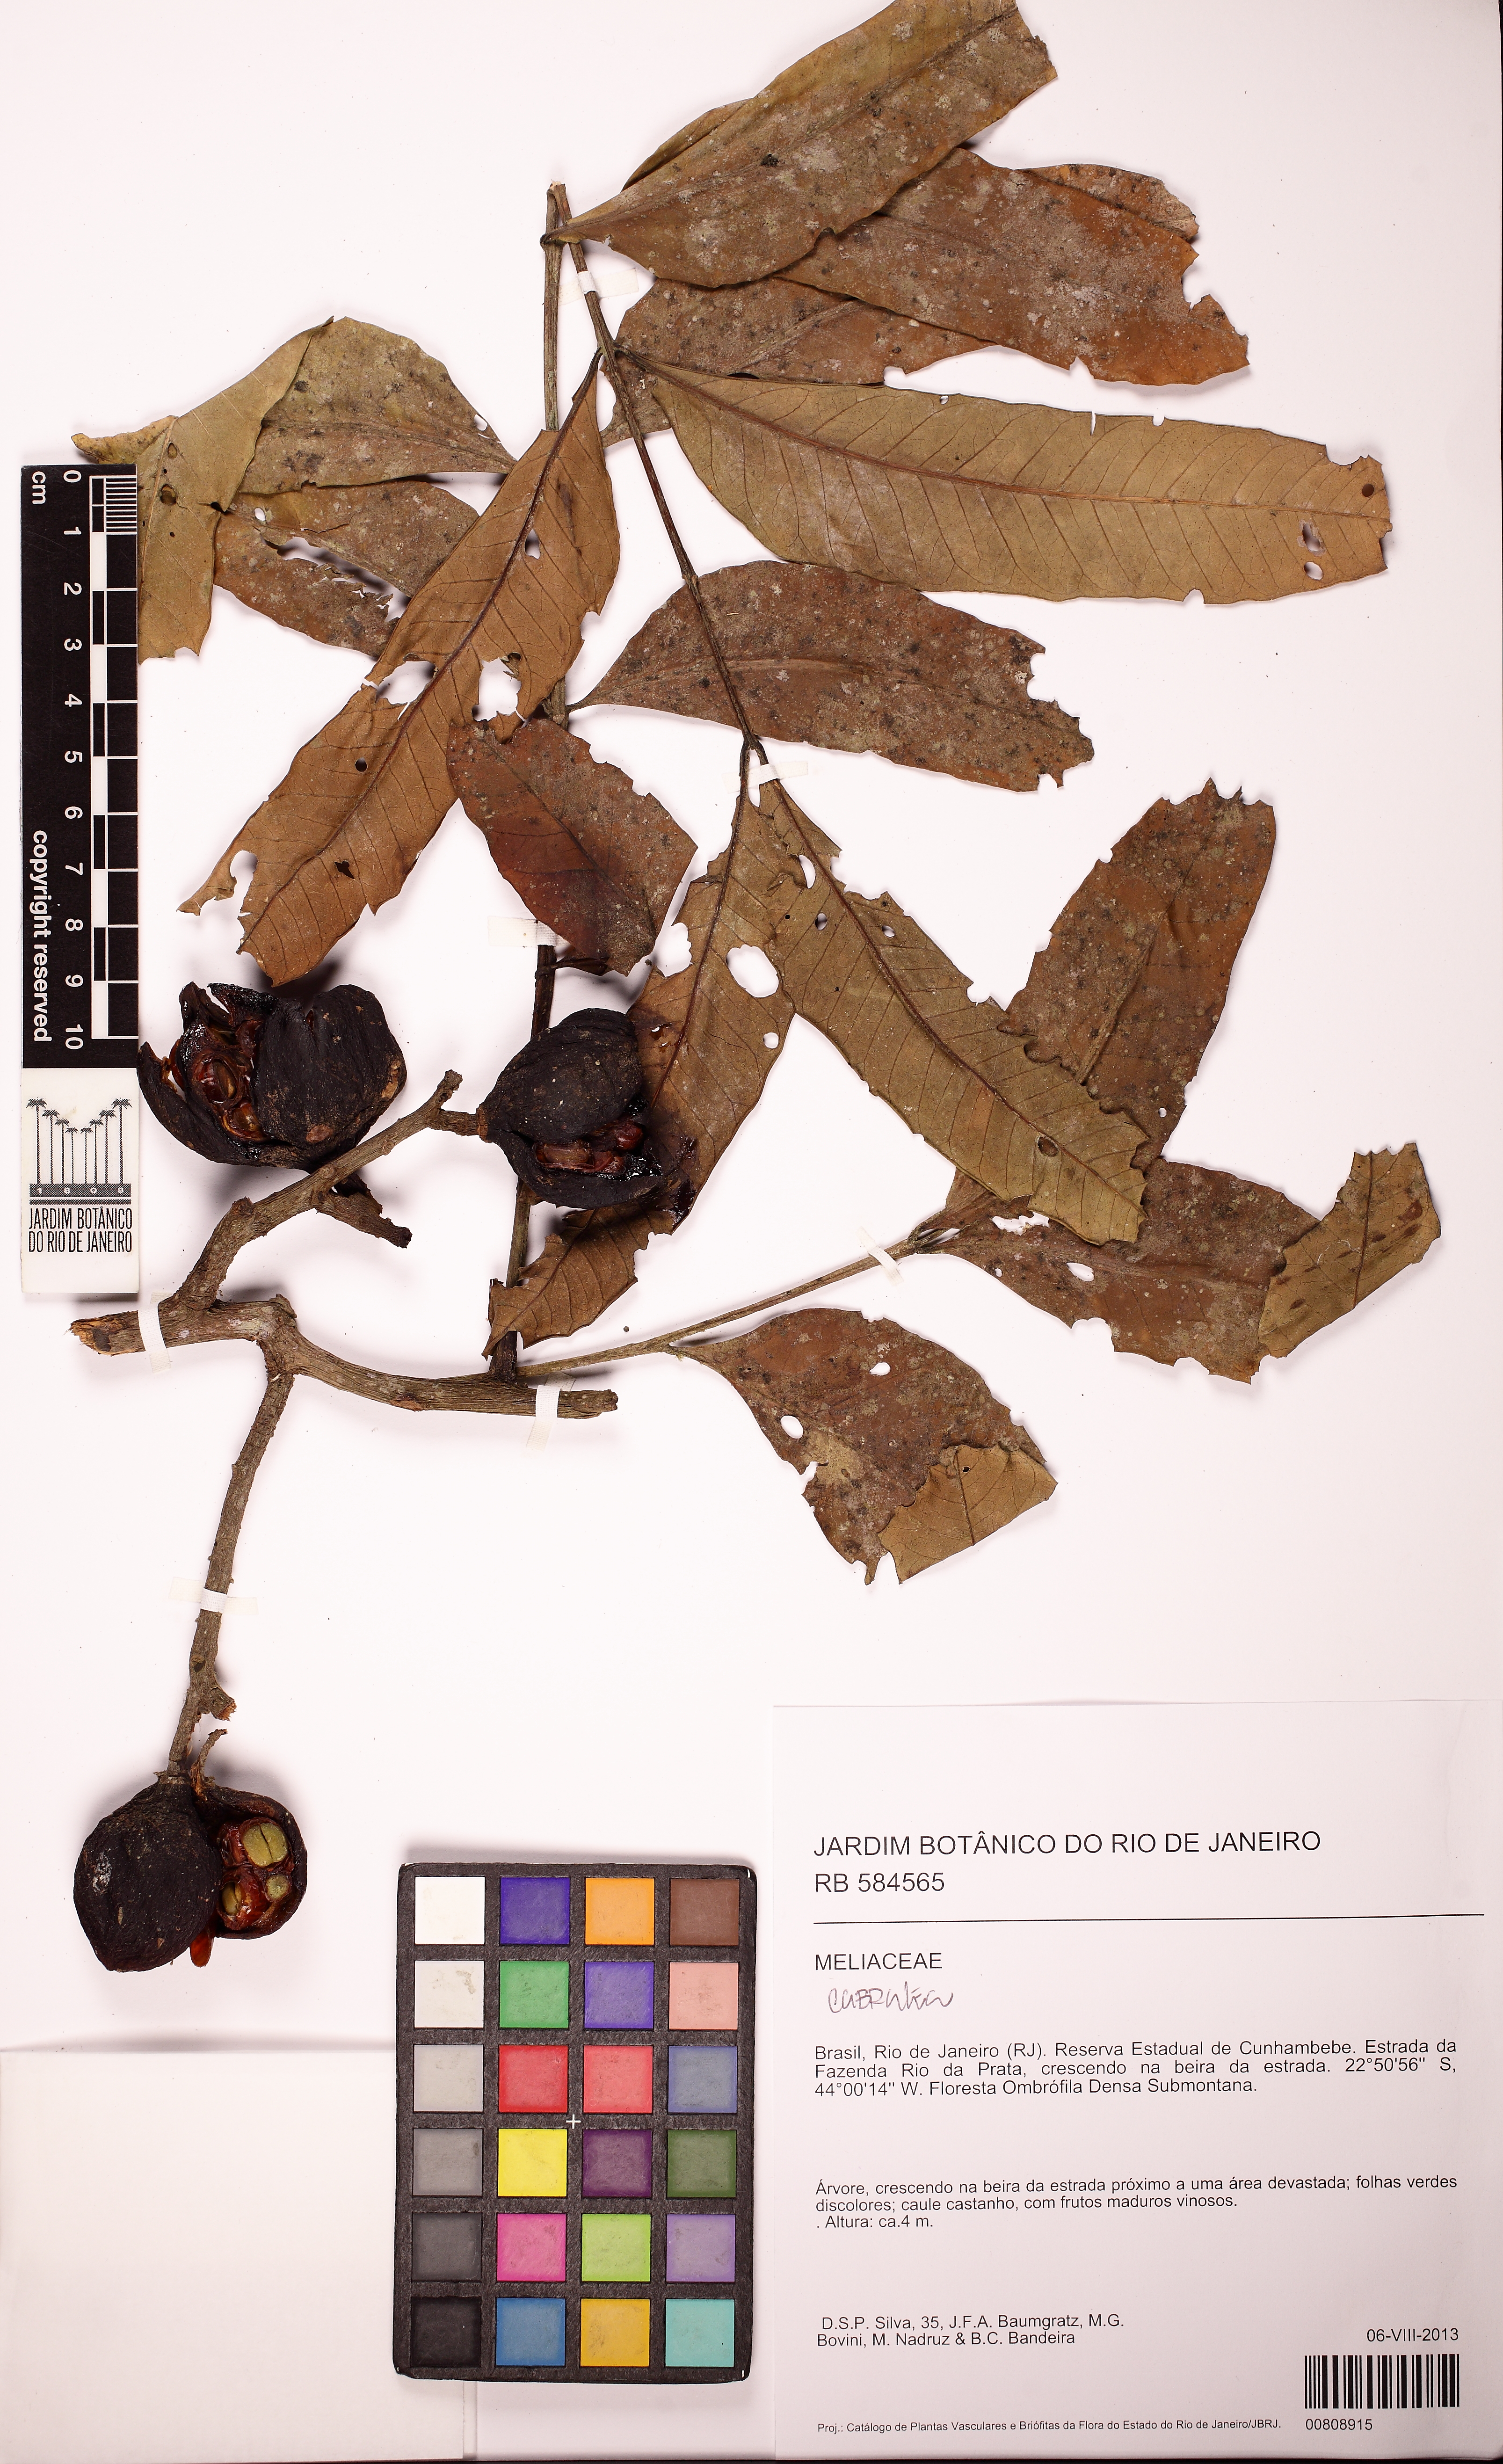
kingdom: Plantae
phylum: Tracheophyta
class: Magnoliopsida
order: Sapindales
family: Meliaceae
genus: Cabralea
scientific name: Cabralea
